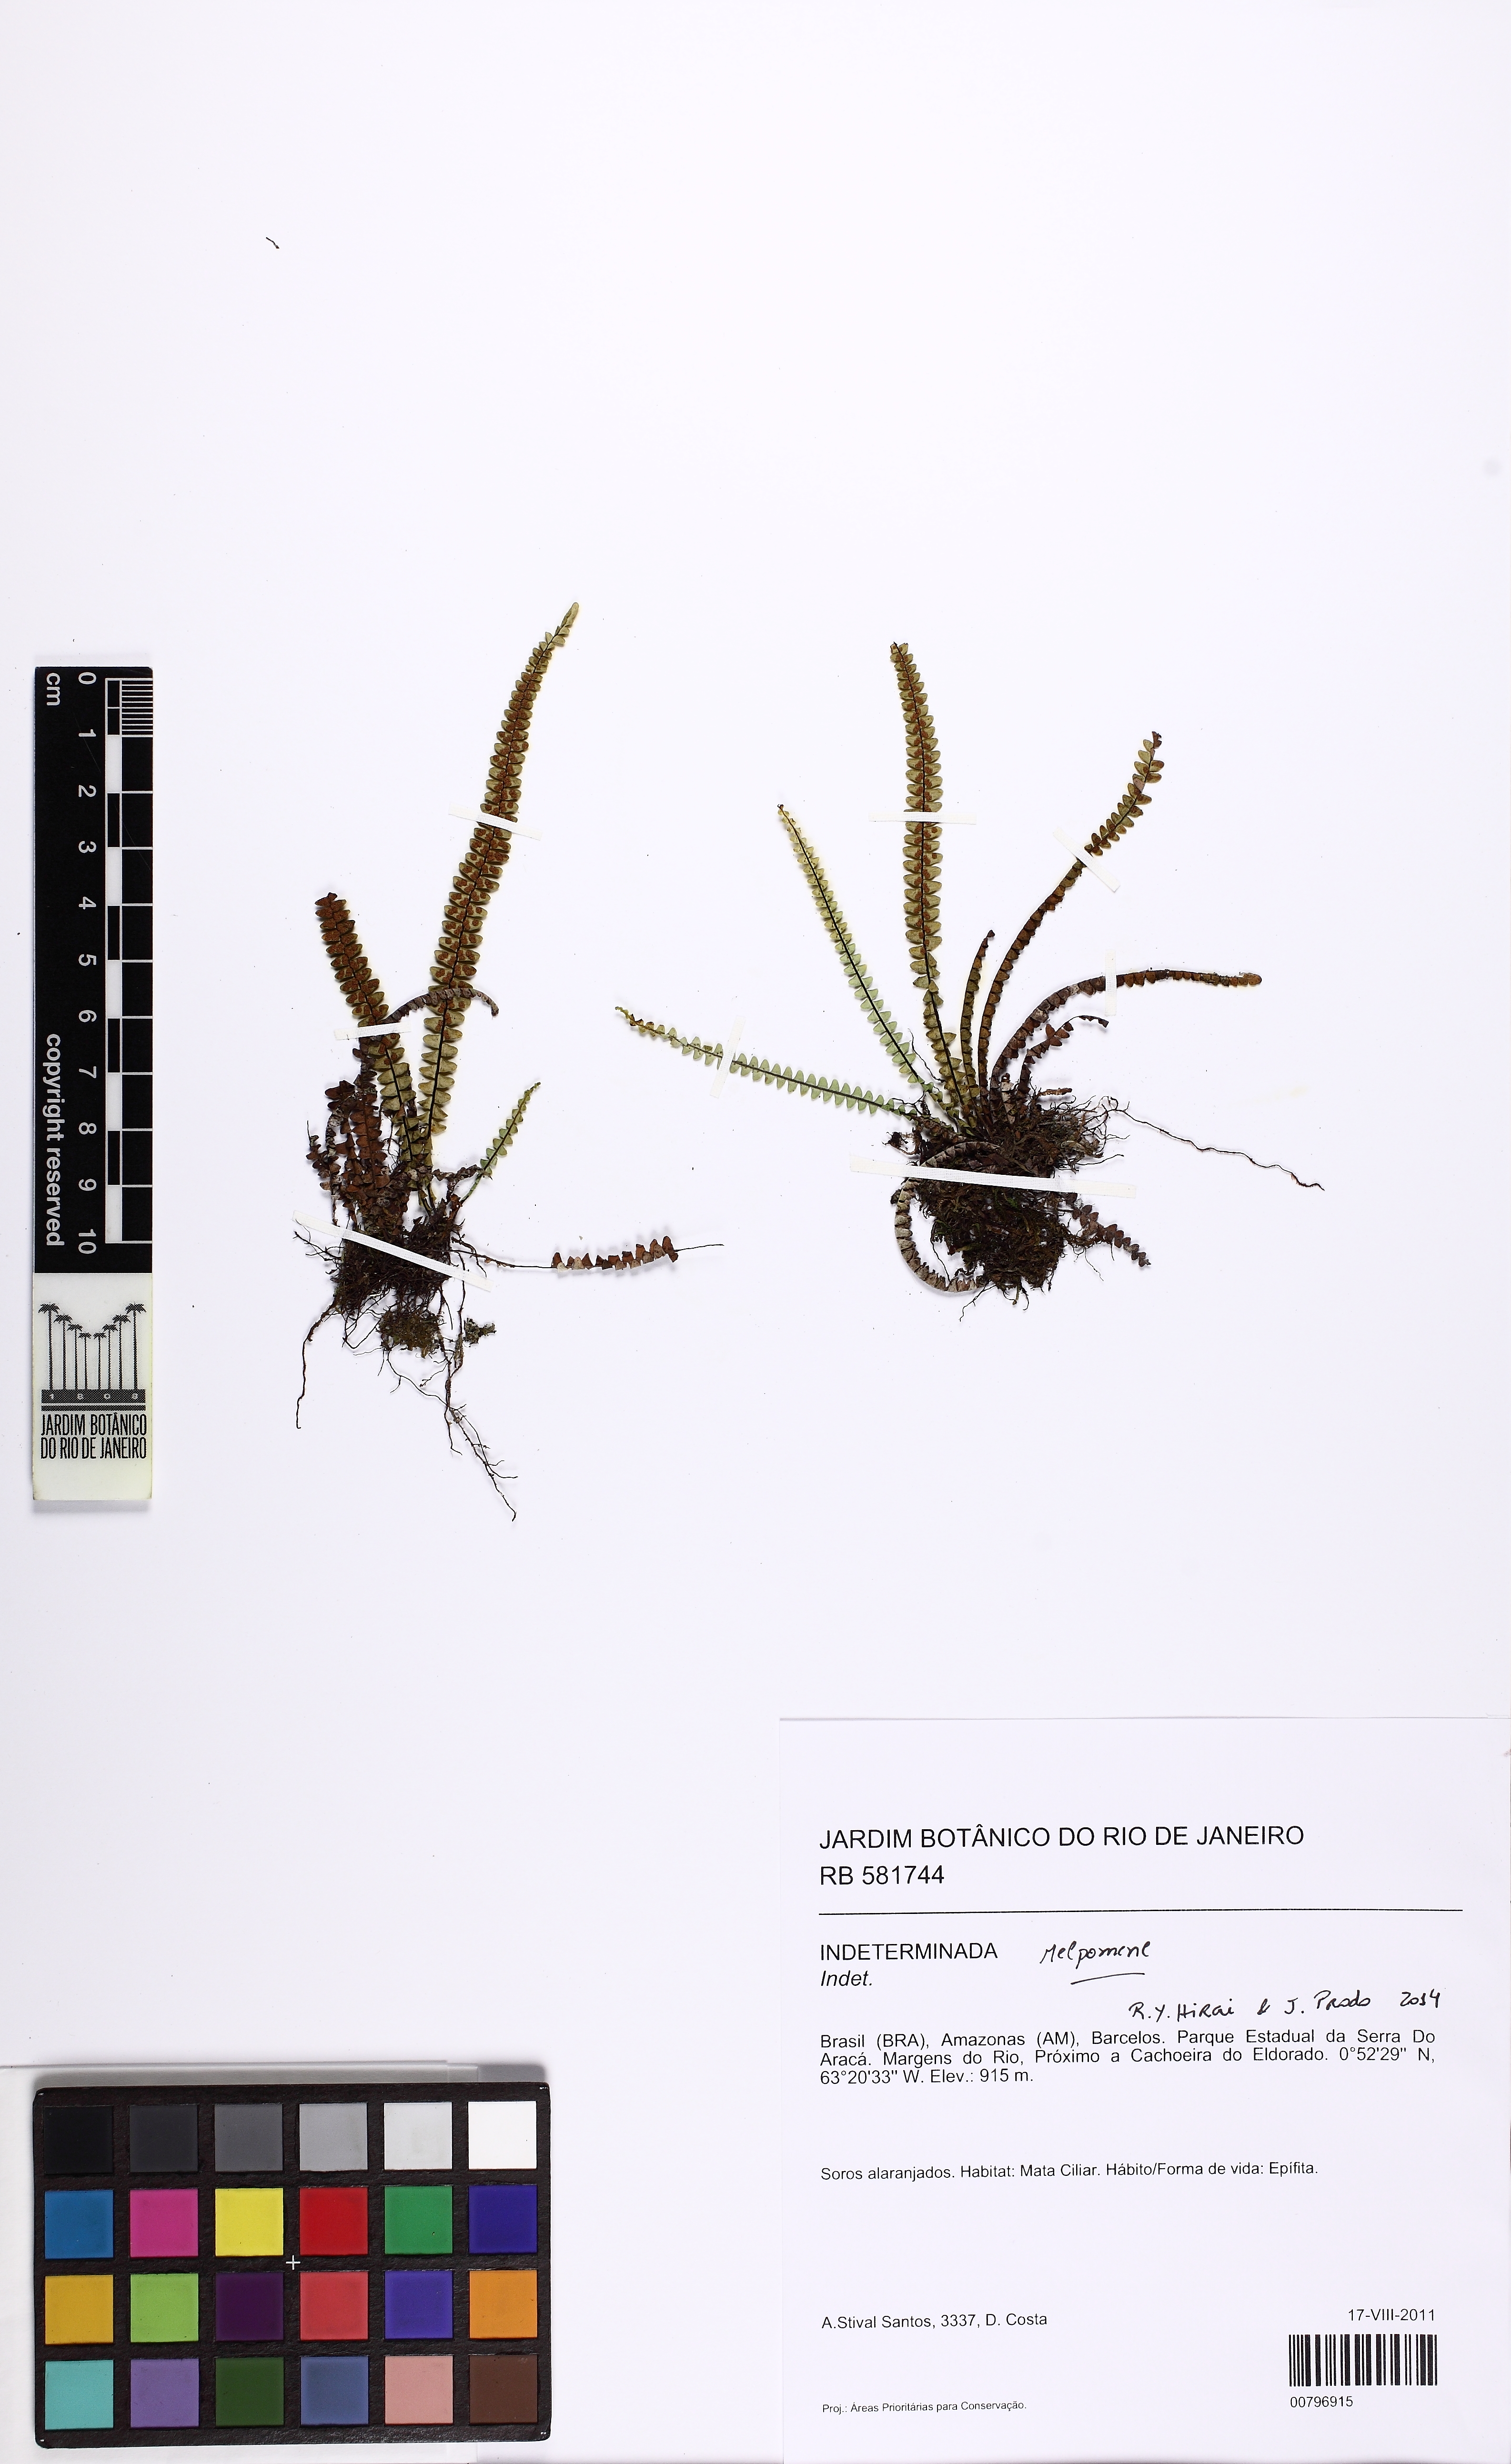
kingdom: Plantae
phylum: Tracheophyta
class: Polypodiopsida
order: Polypodiales
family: Polypodiaceae
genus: Melpomene
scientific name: Melpomene melanosticta
